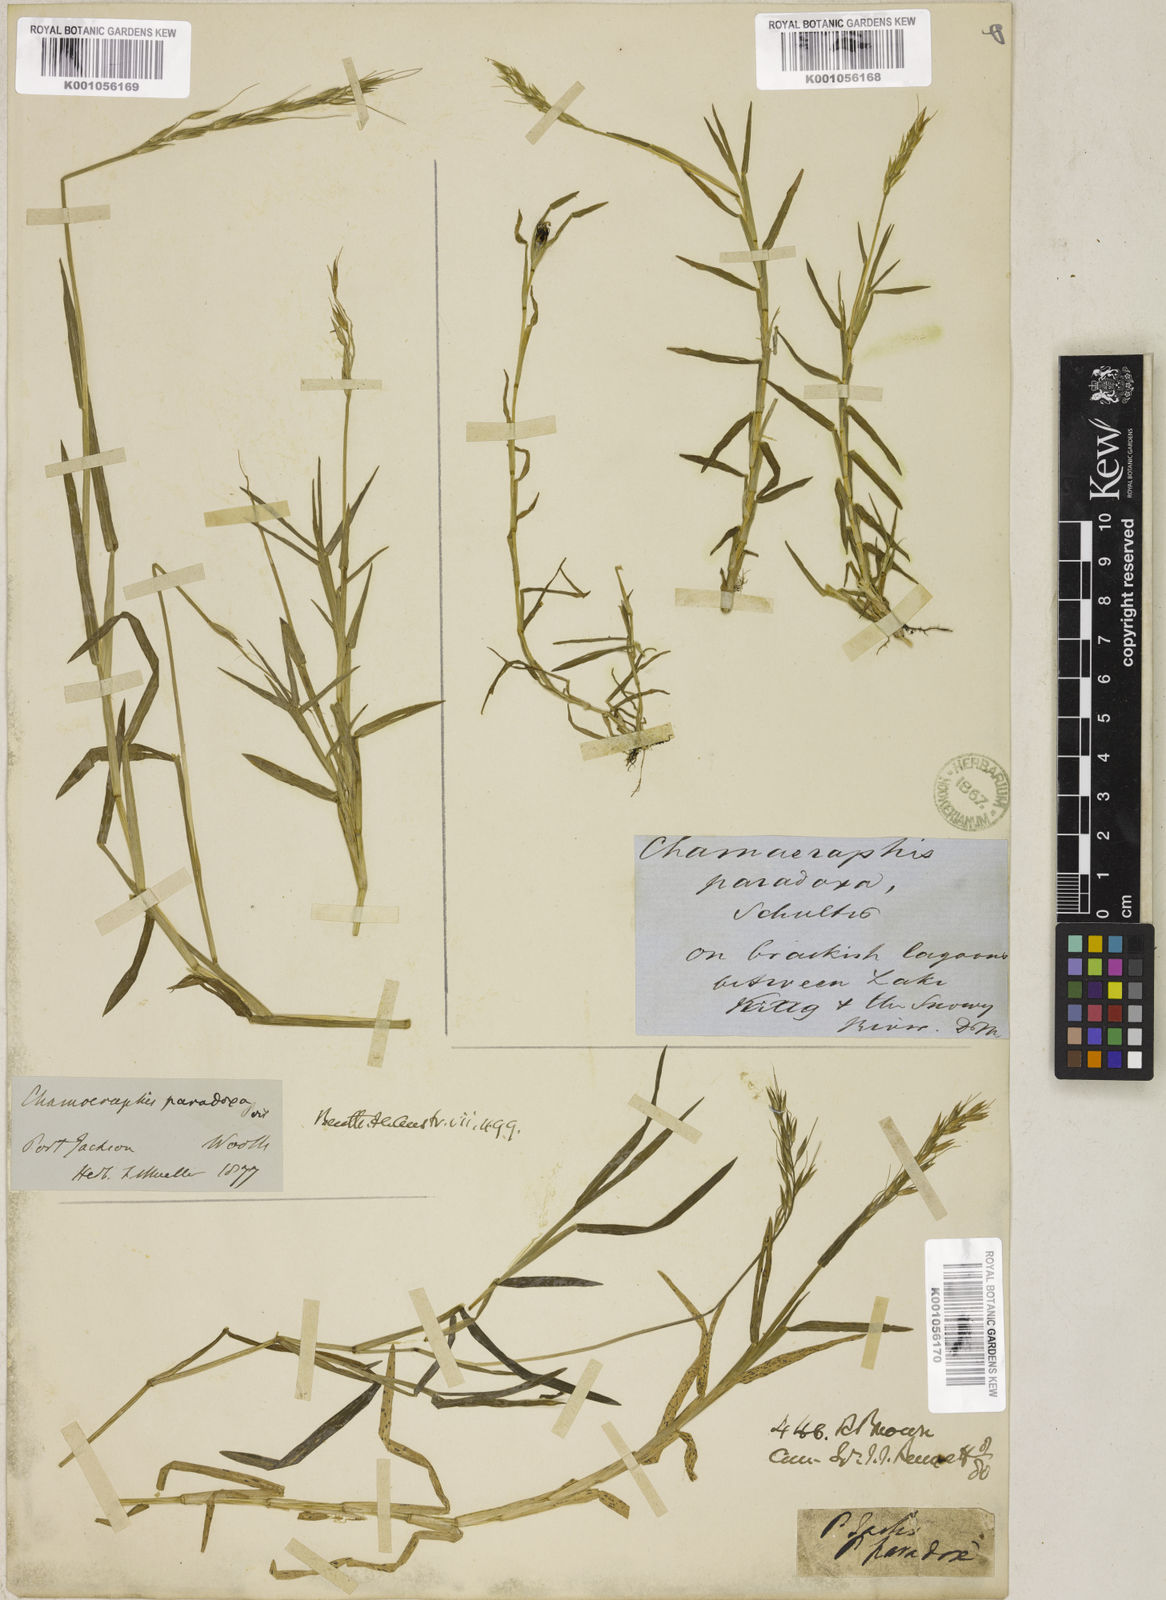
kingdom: Plantae
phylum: Tracheophyta
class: Liliopsida
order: Poales
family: Poaceae
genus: Pseudoraphis
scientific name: Pseudoraphis paradoxa
